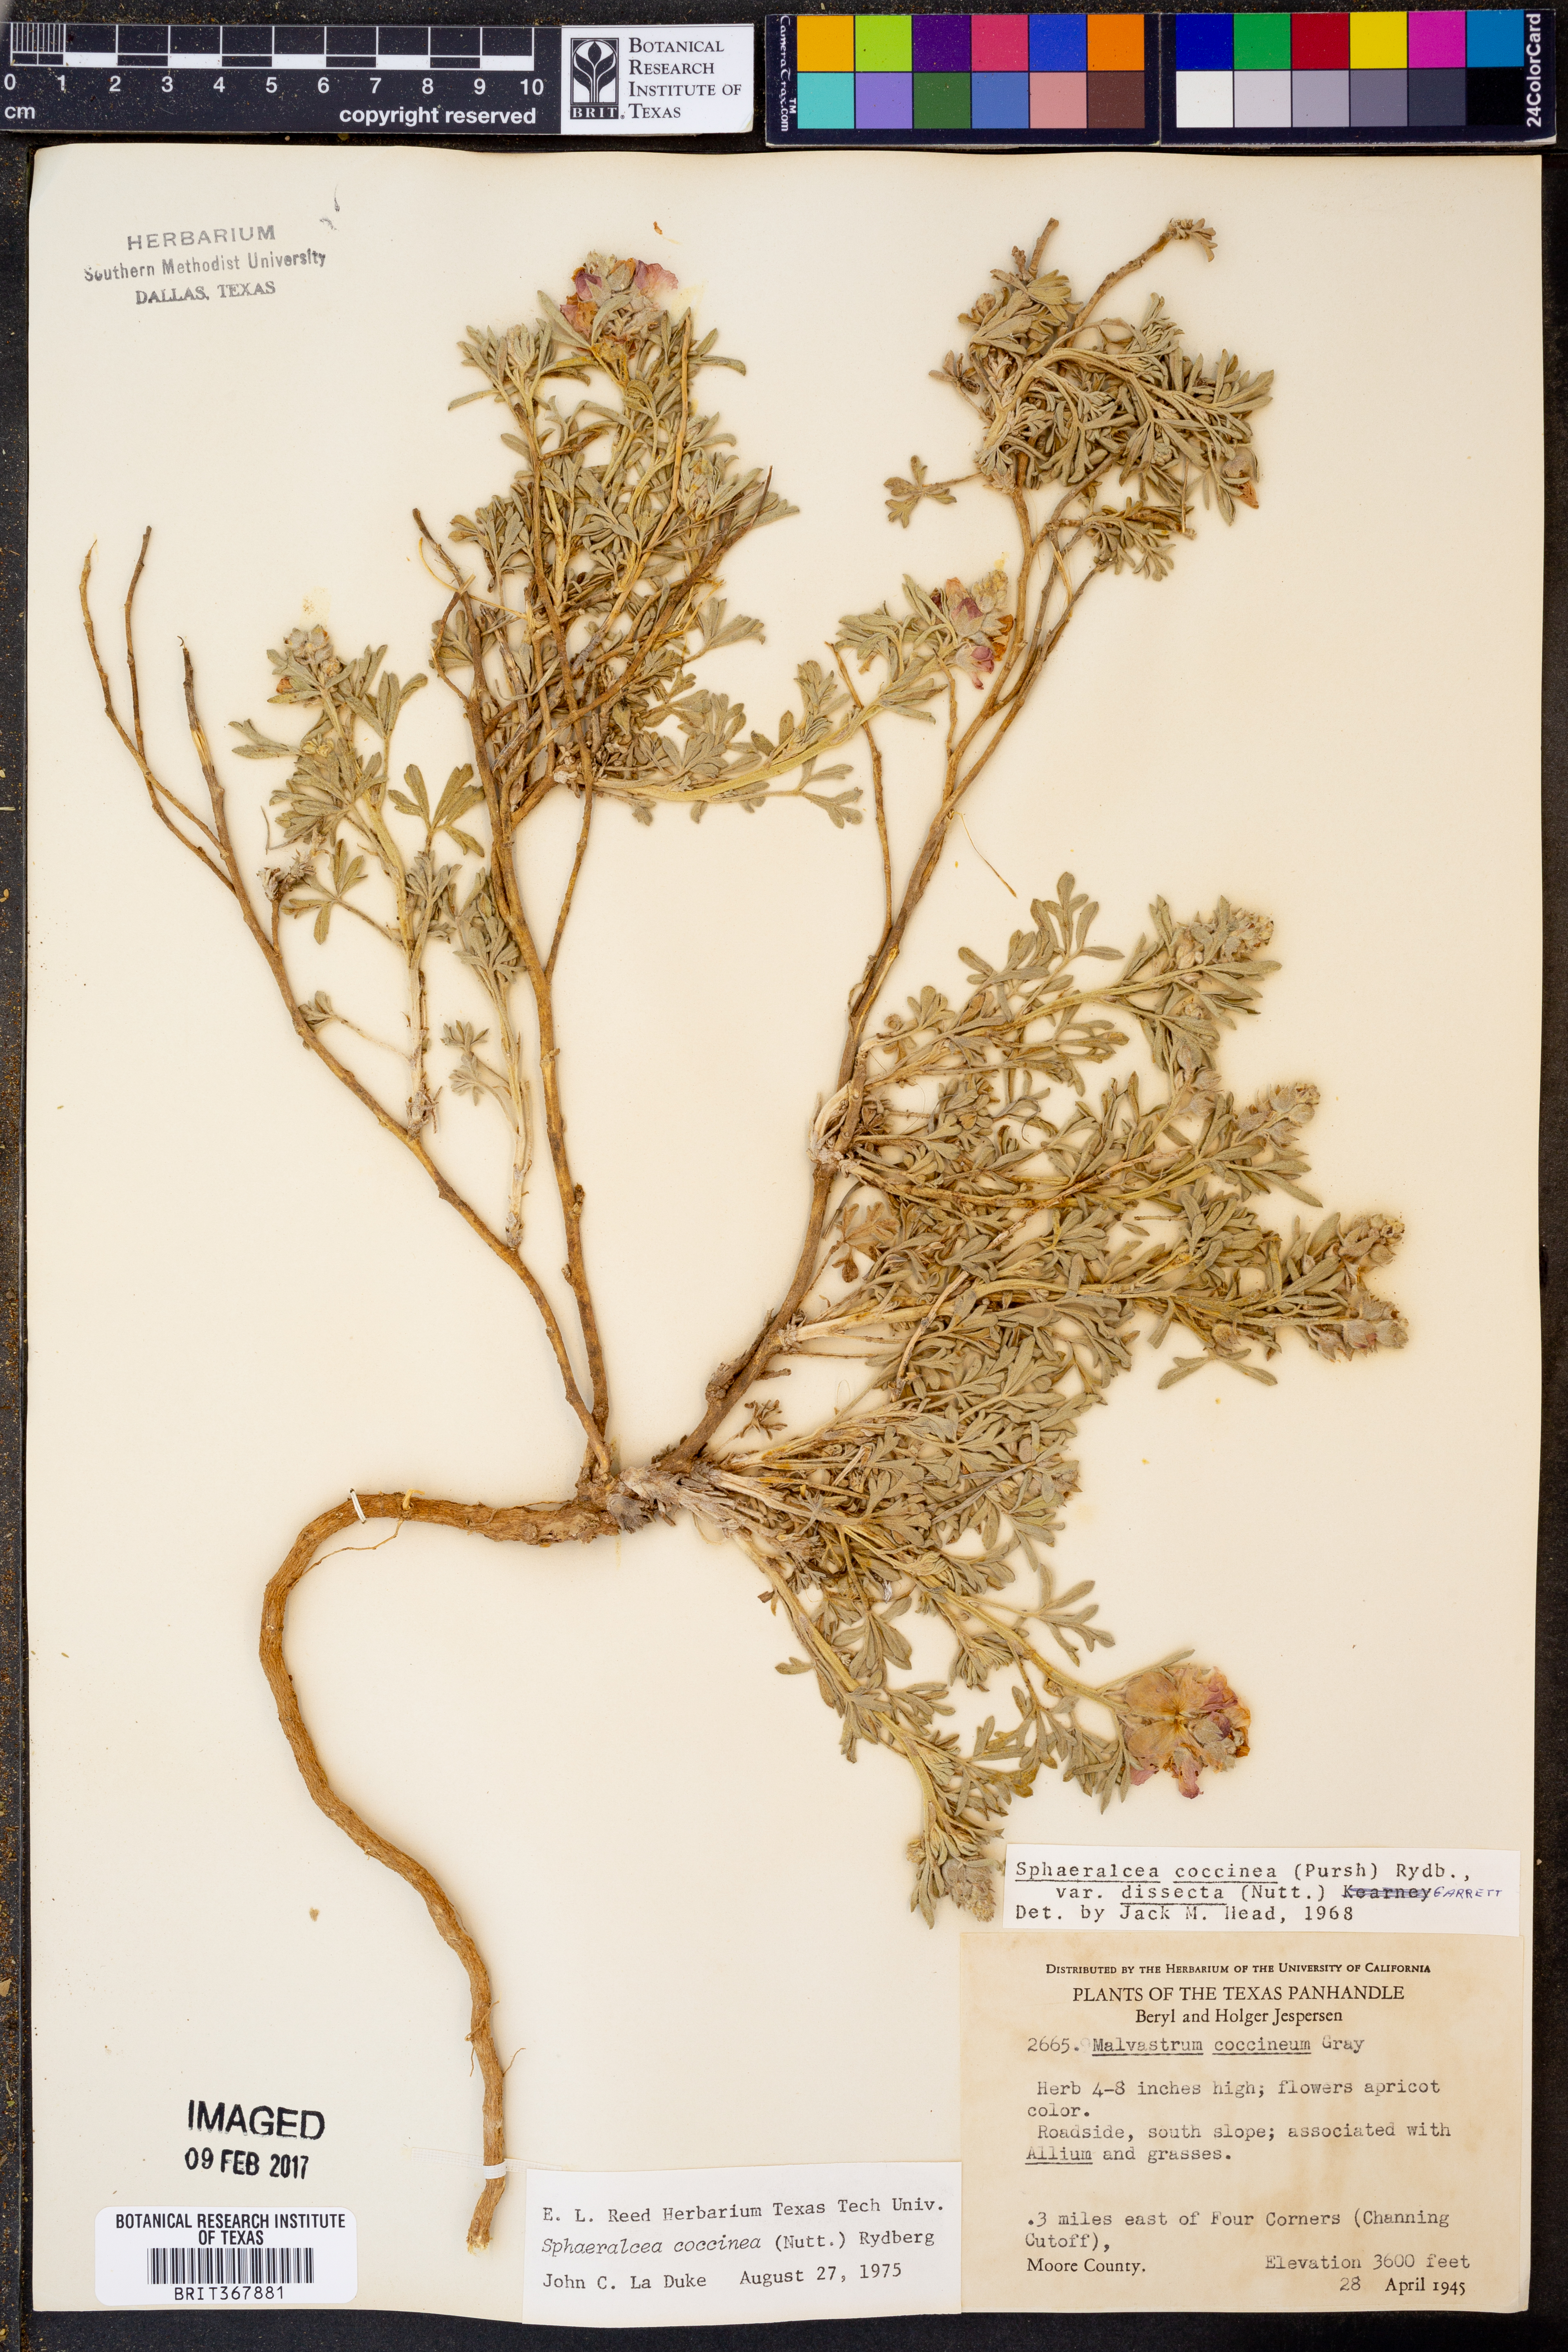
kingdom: Plantae
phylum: Tracheophyta
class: Magnoliopsida
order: Malvales
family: Malvaceae
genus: Sphaeralcea
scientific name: Sphaeralcea coccinea
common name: Moss-rose
